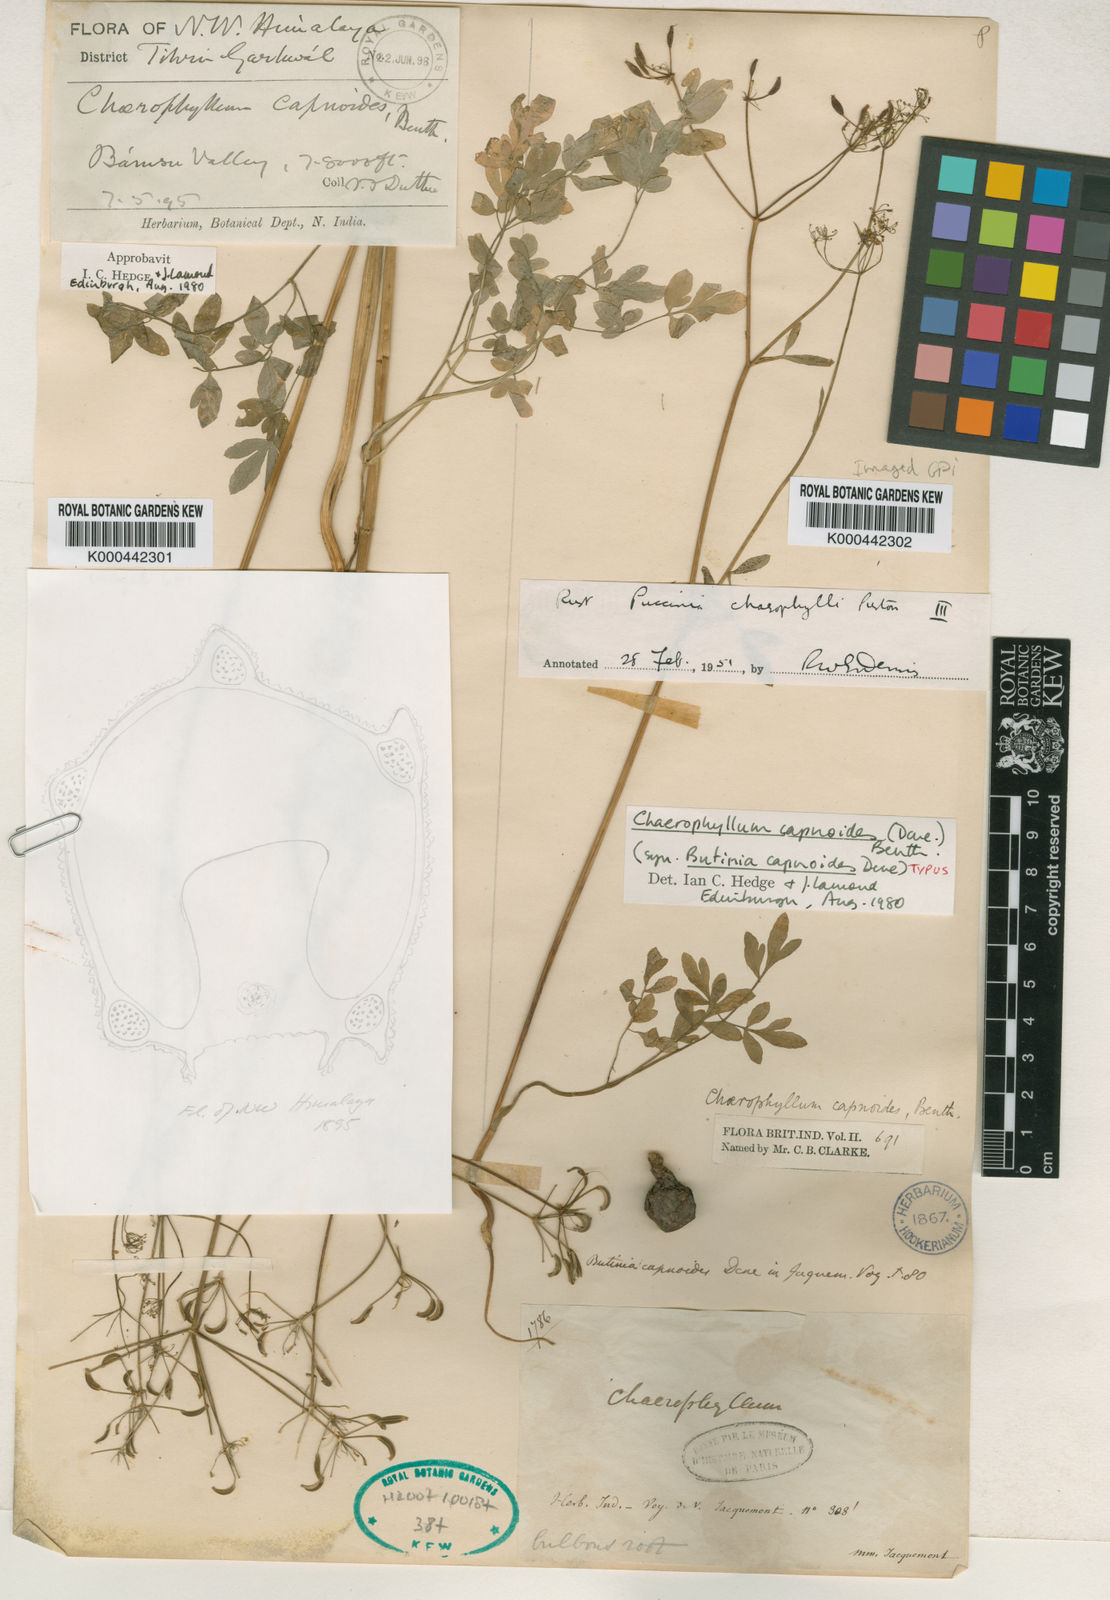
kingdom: Plantae
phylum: Tracheophyta
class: Magnoliopsida
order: Apiales
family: Apiaceae
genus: Chaerophyllum
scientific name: Chaerophyllum
